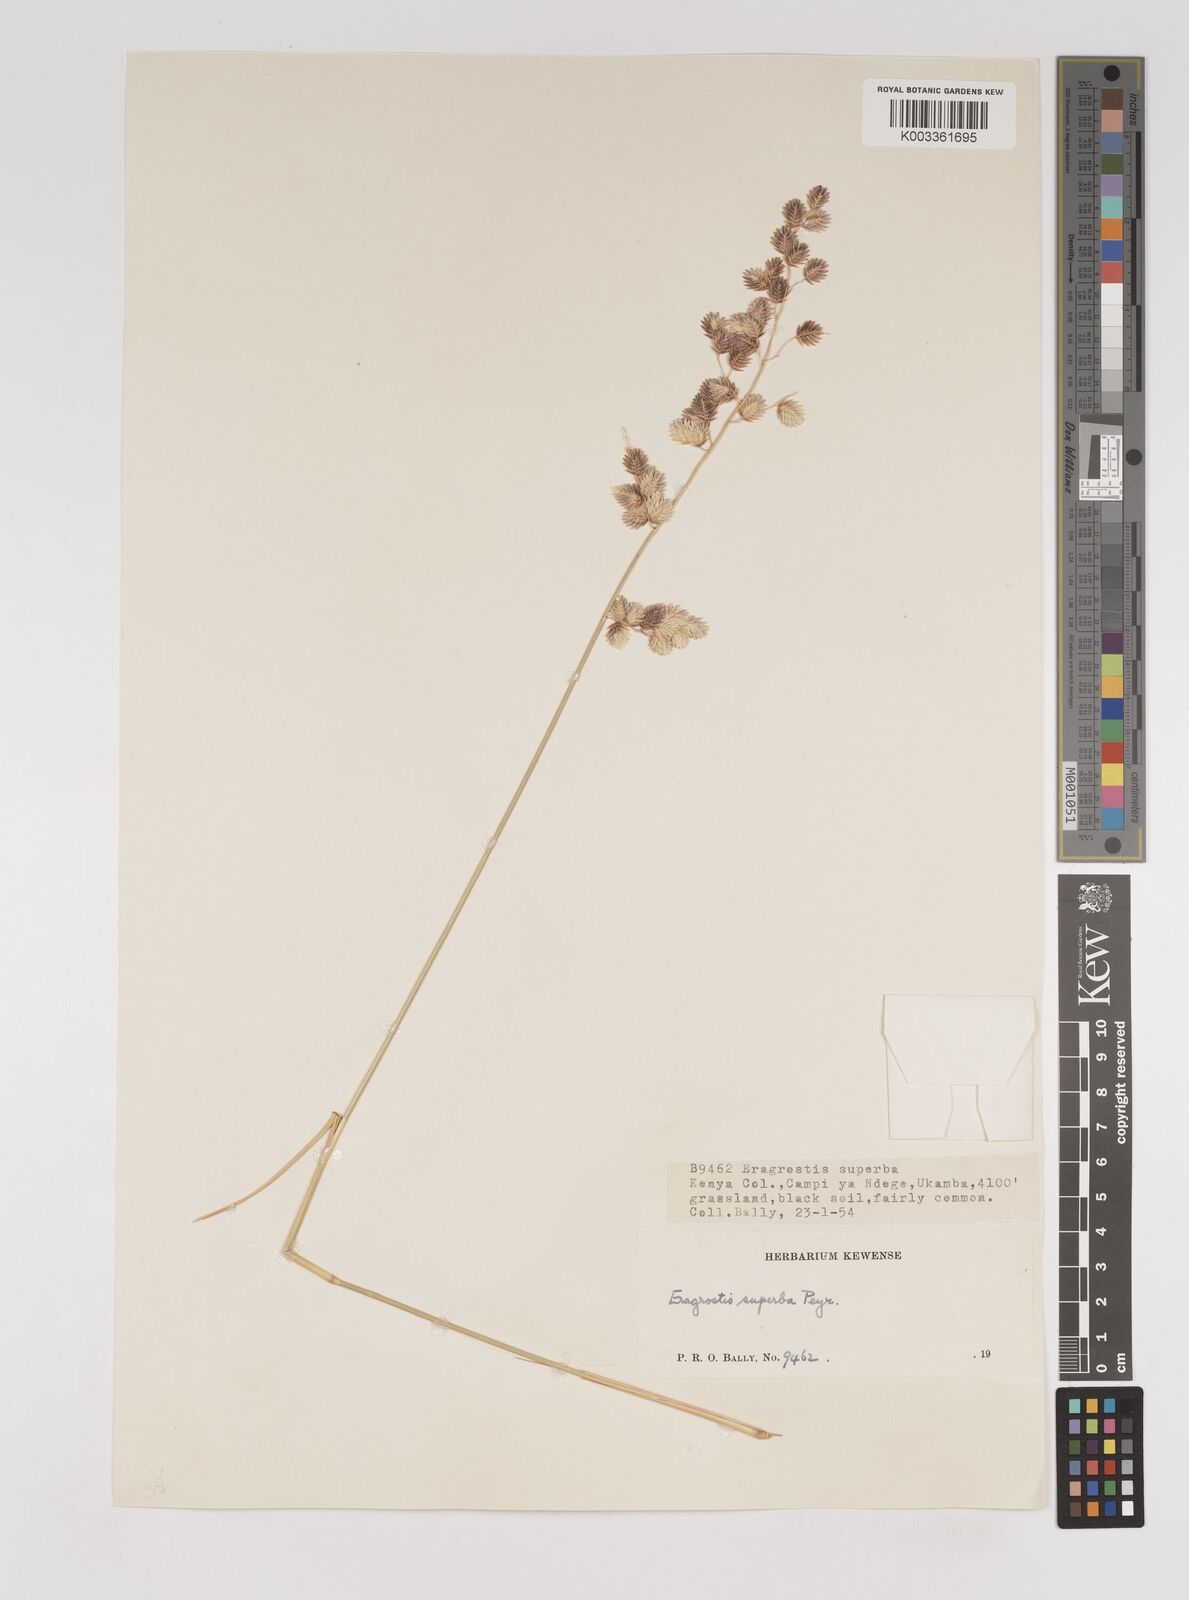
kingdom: Plantae
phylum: Tracheophyta
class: Liliopsida
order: Poales
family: Poaceae
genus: Eragrostis
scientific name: Eragrostis superba
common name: Wilman lovegrass
